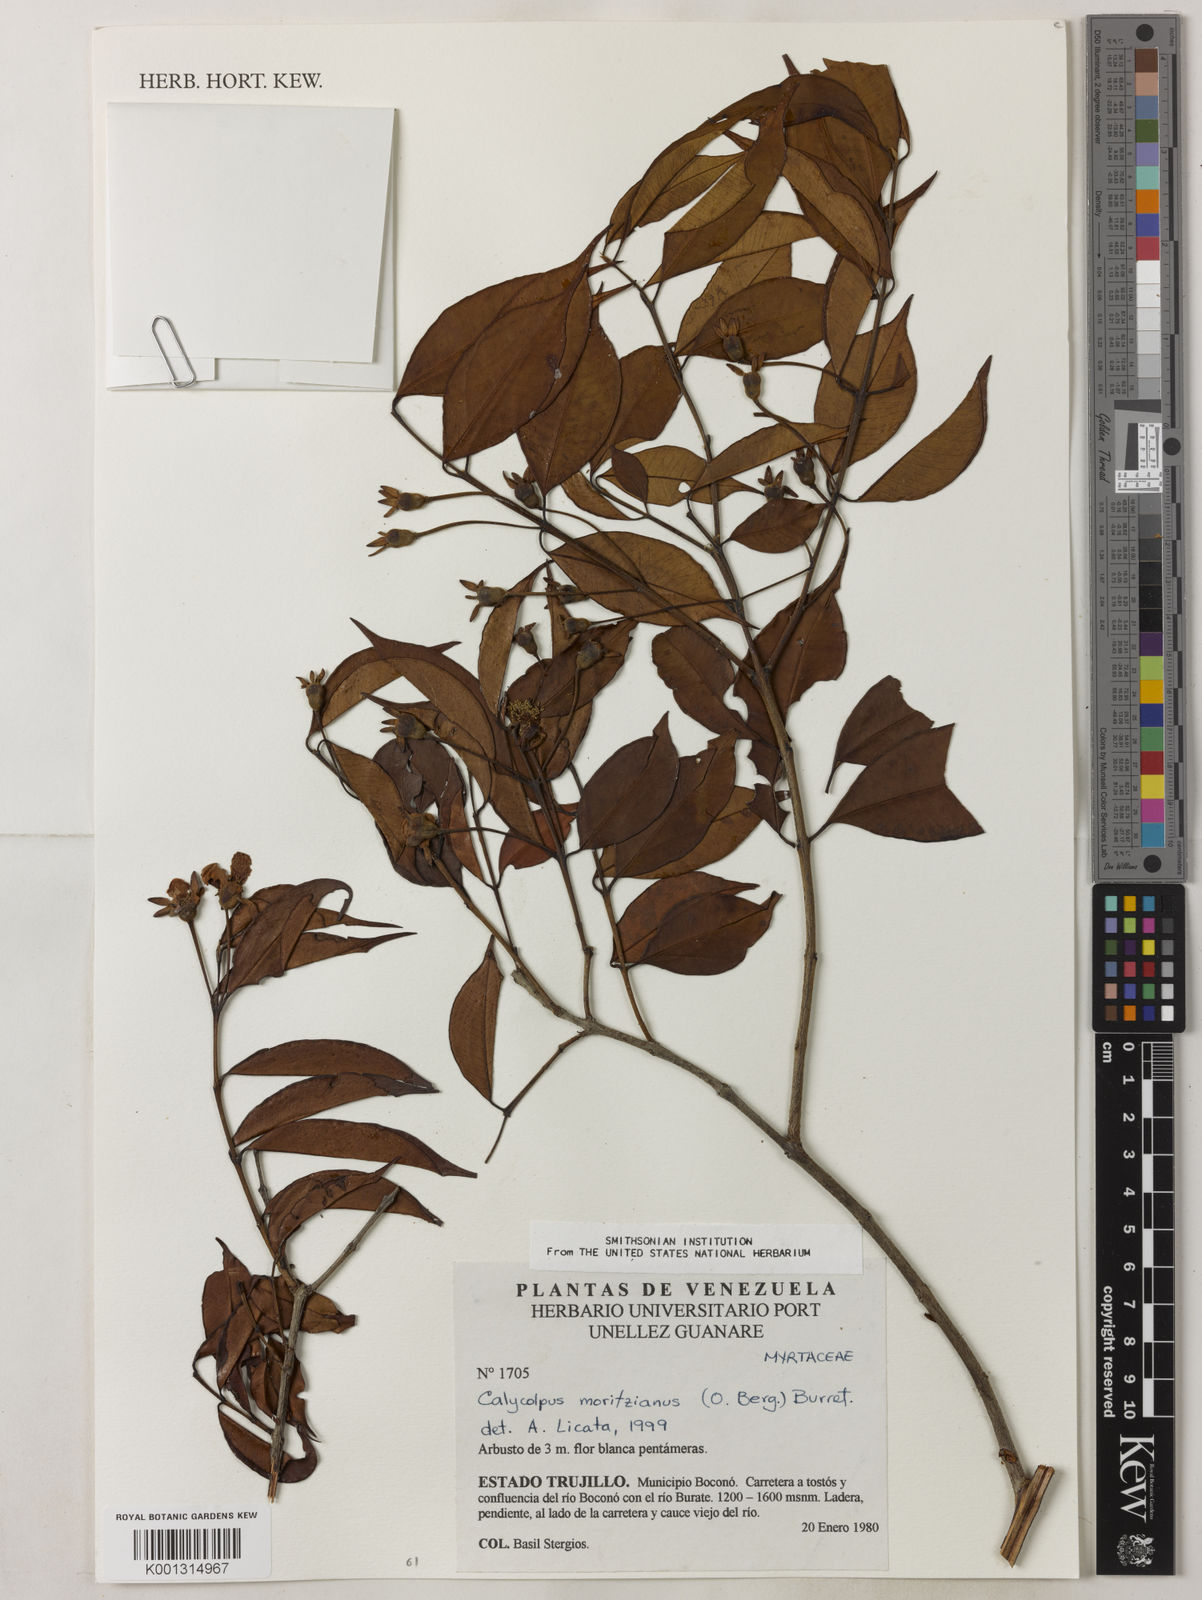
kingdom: Plantae
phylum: Tracheophyta
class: Magnoliopsida
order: Myrtales
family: Myrtaceae
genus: Calycolpus
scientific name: Calycolpus moritzianus
